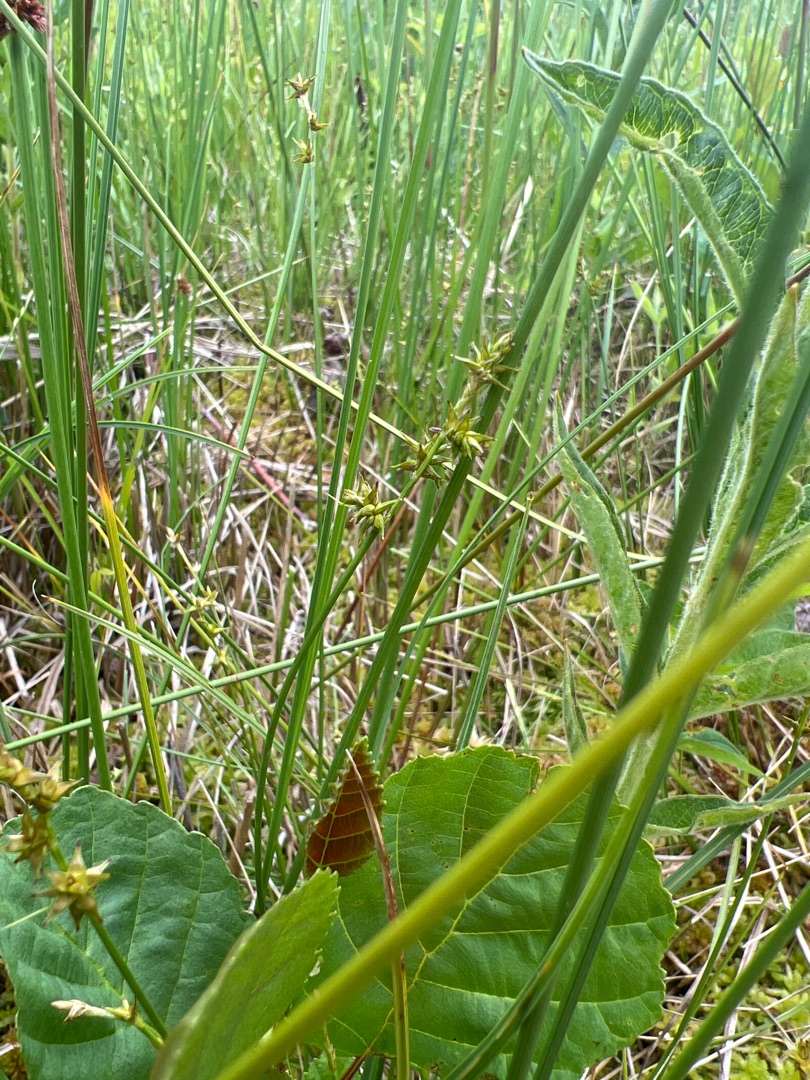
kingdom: Plantae
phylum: Tracheophyta
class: Liliopsida
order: Poales
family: Cyperaceae
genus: Carex
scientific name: Carex echinata
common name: Stjerne-star
